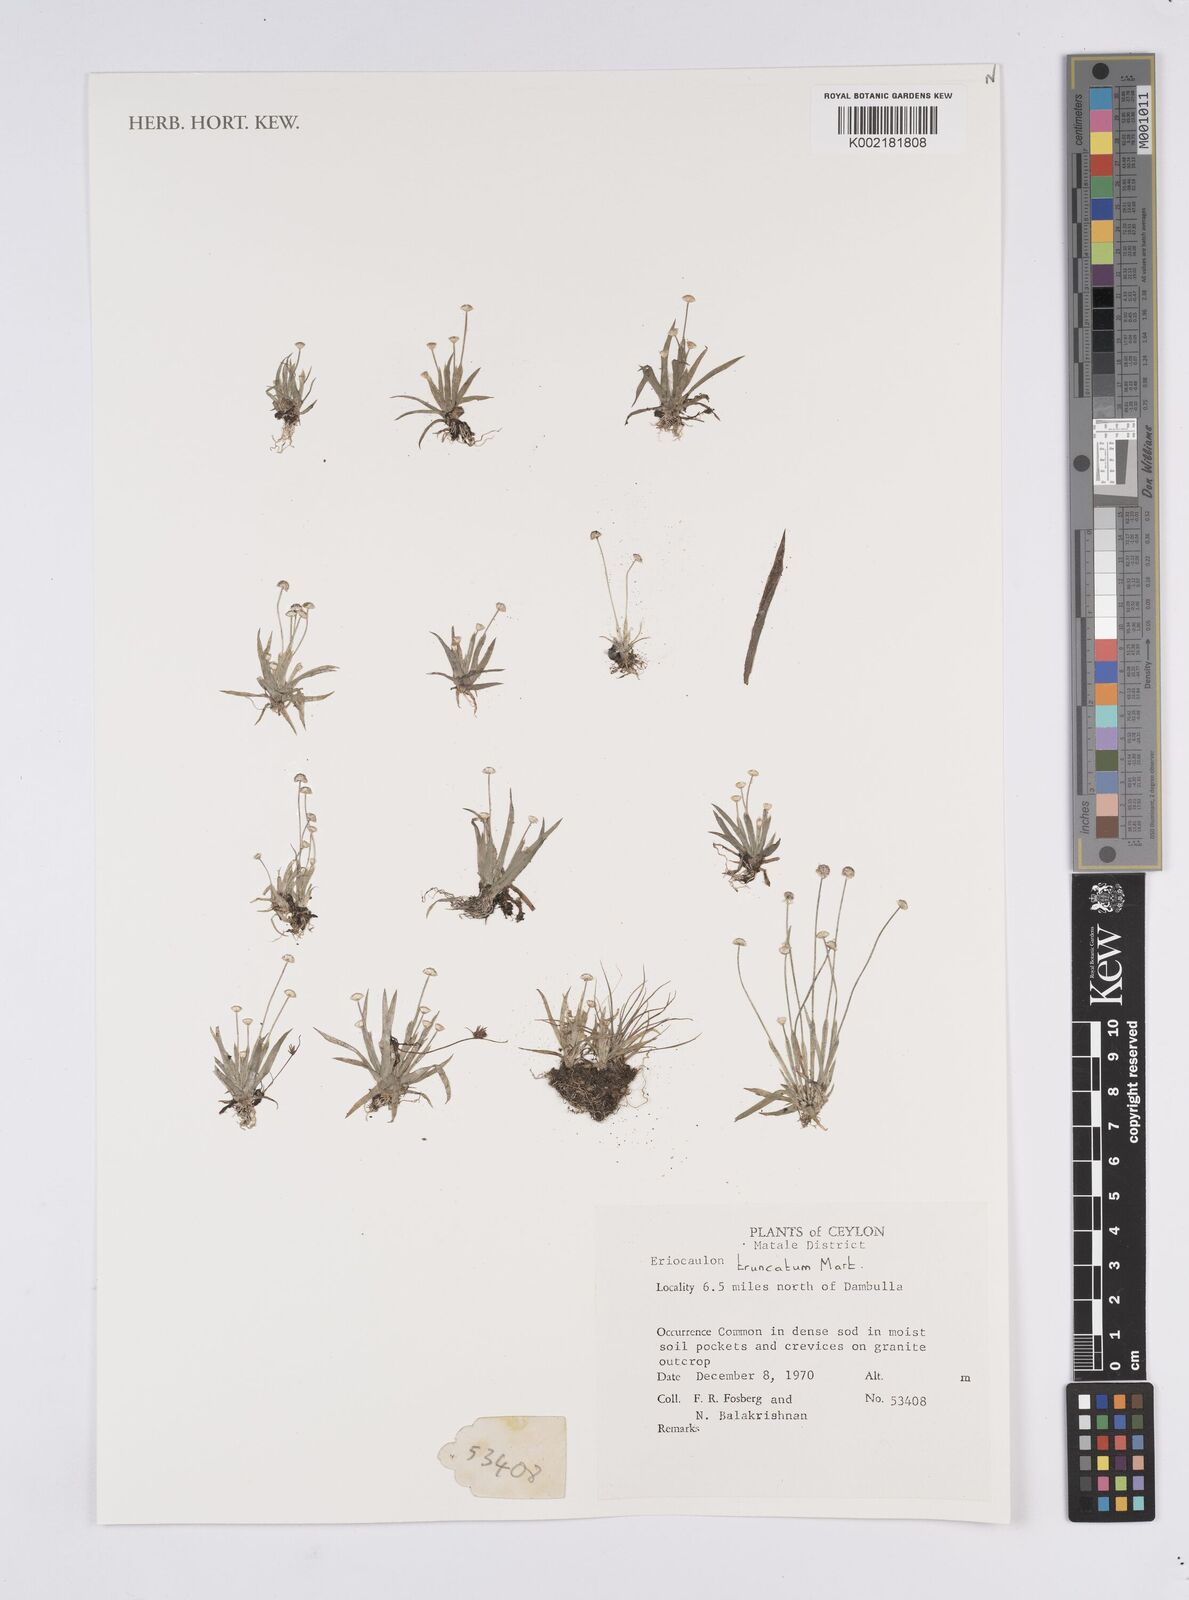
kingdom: Plantae
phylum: Tracheophyta
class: Liliopsida
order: Poales
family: Eriocaulaceae
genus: Eriocaulon
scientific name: Eriocaulon truncatum
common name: Short pipe-wort
